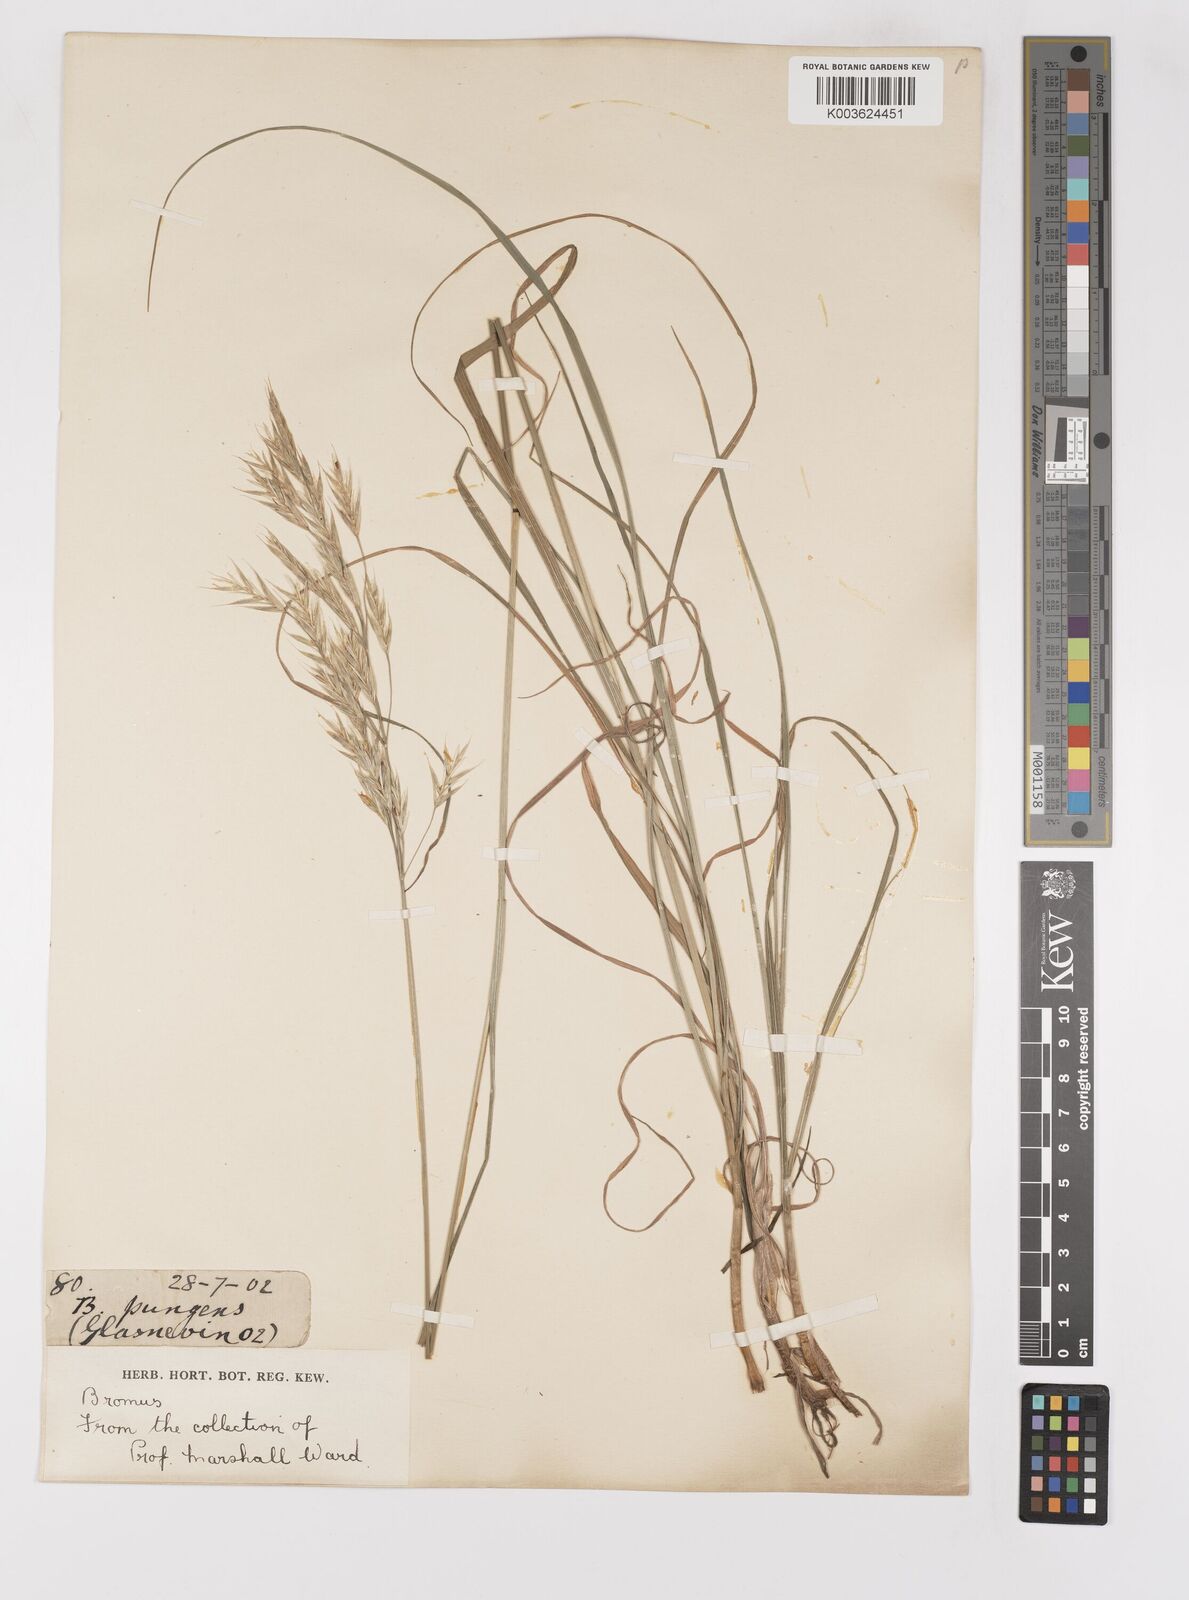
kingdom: Plantae
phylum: Tracheophyta
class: Liliopsida
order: Poales
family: Poaceae
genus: Bromus
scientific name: Bromus
